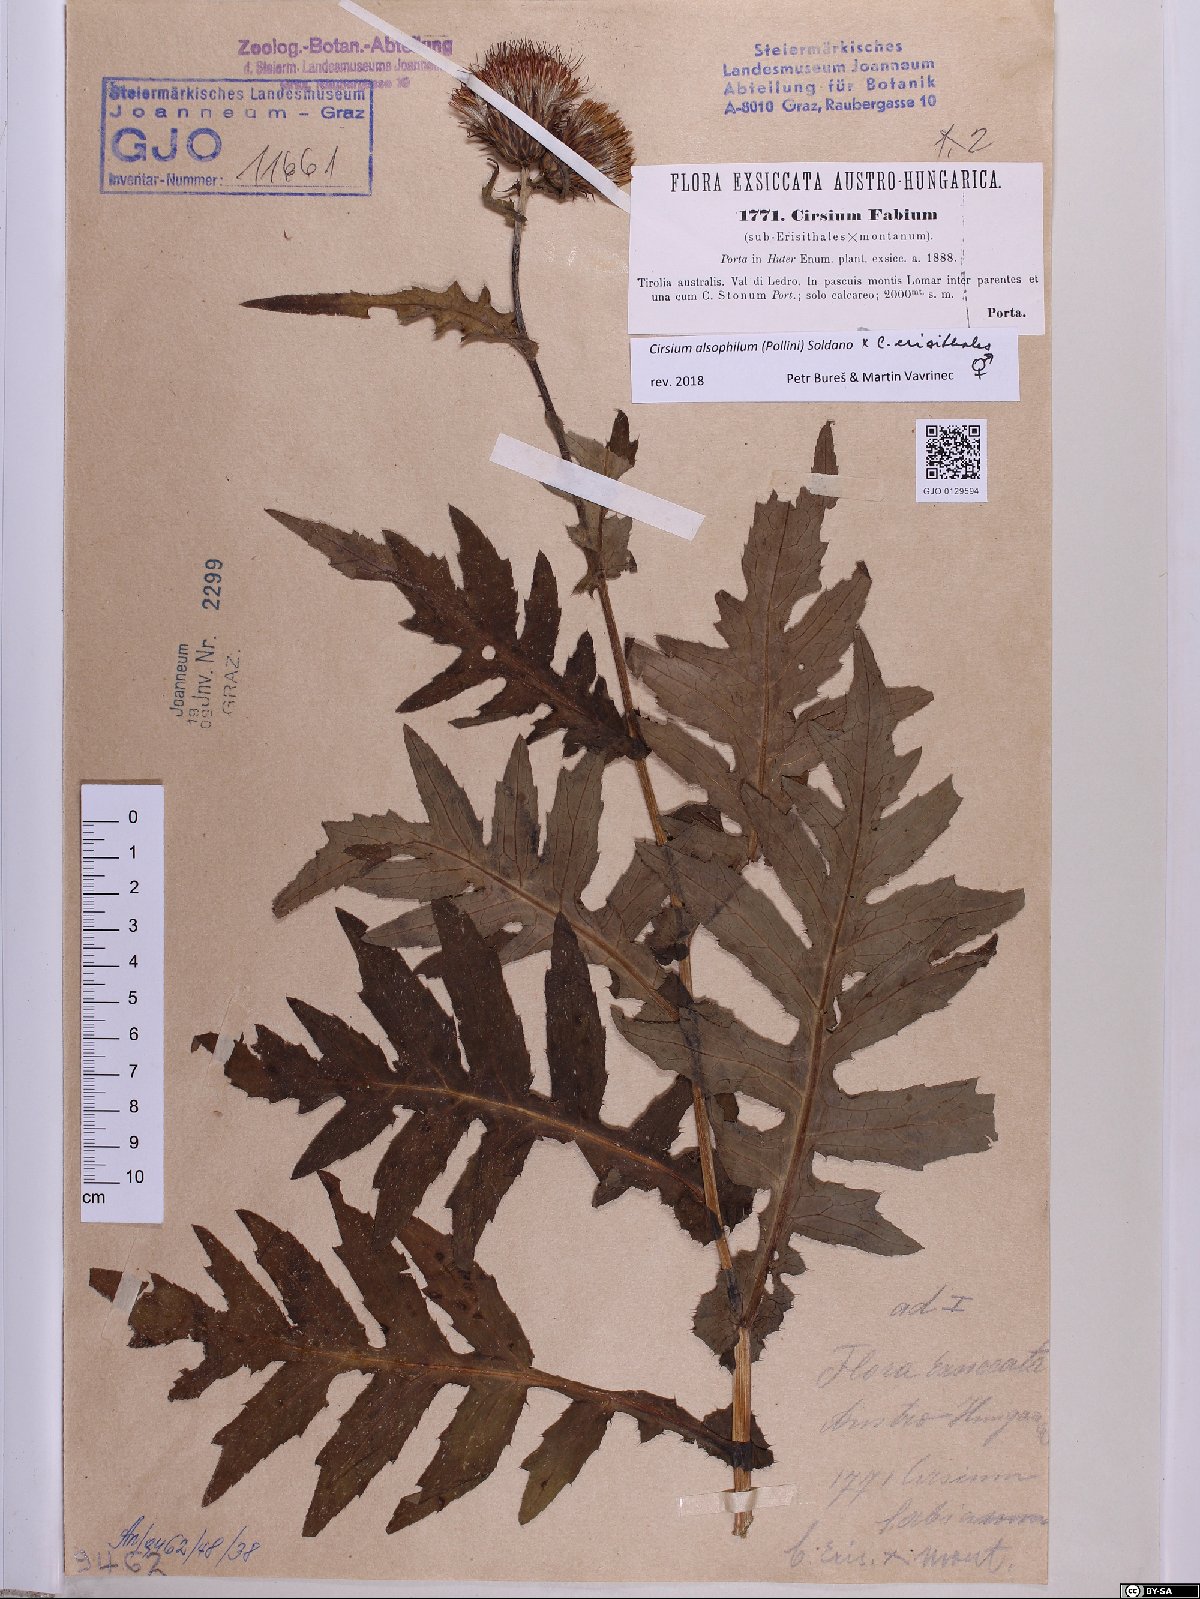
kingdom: Plantae
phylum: Tracheophyta
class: Magnoliopsida
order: Asterales
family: Asteraceae
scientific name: Asteraceae
